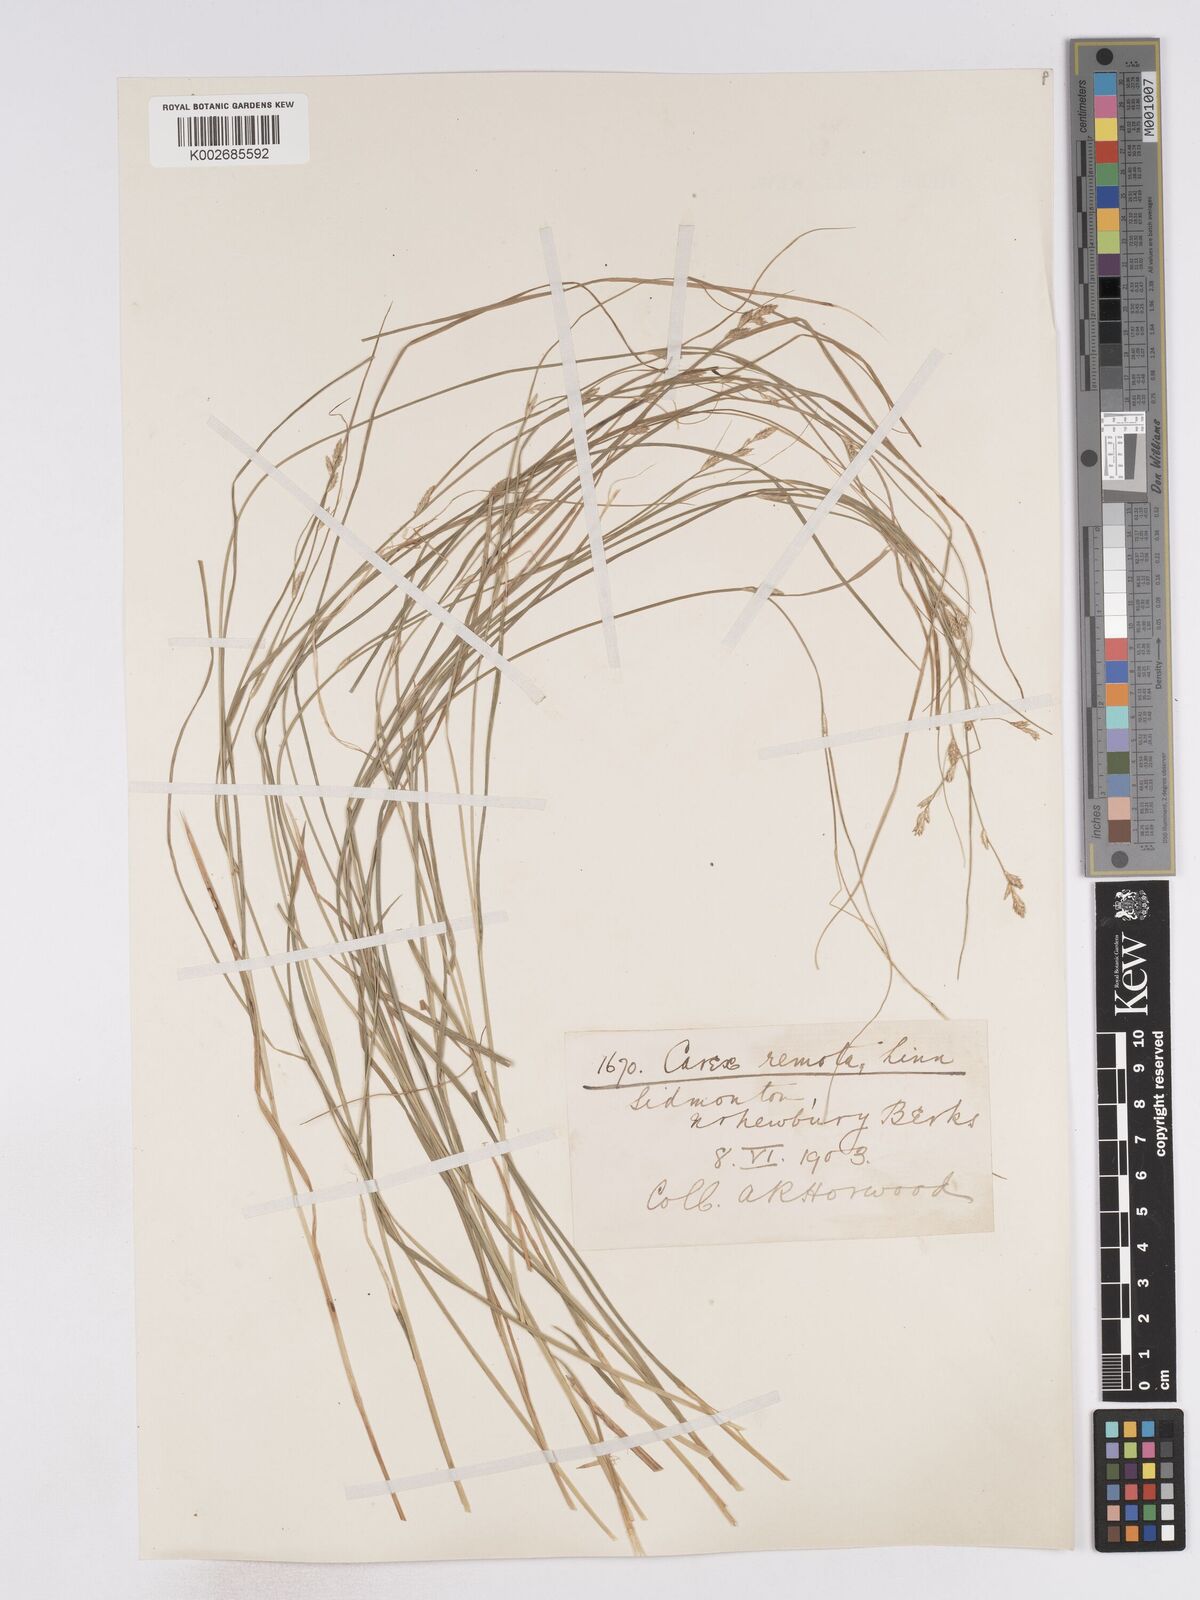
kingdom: Plantae
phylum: Tracheophyta
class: Liliopsida
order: Poales
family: Cyperaceae
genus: Carex
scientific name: Carex remota
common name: Remote sedge
